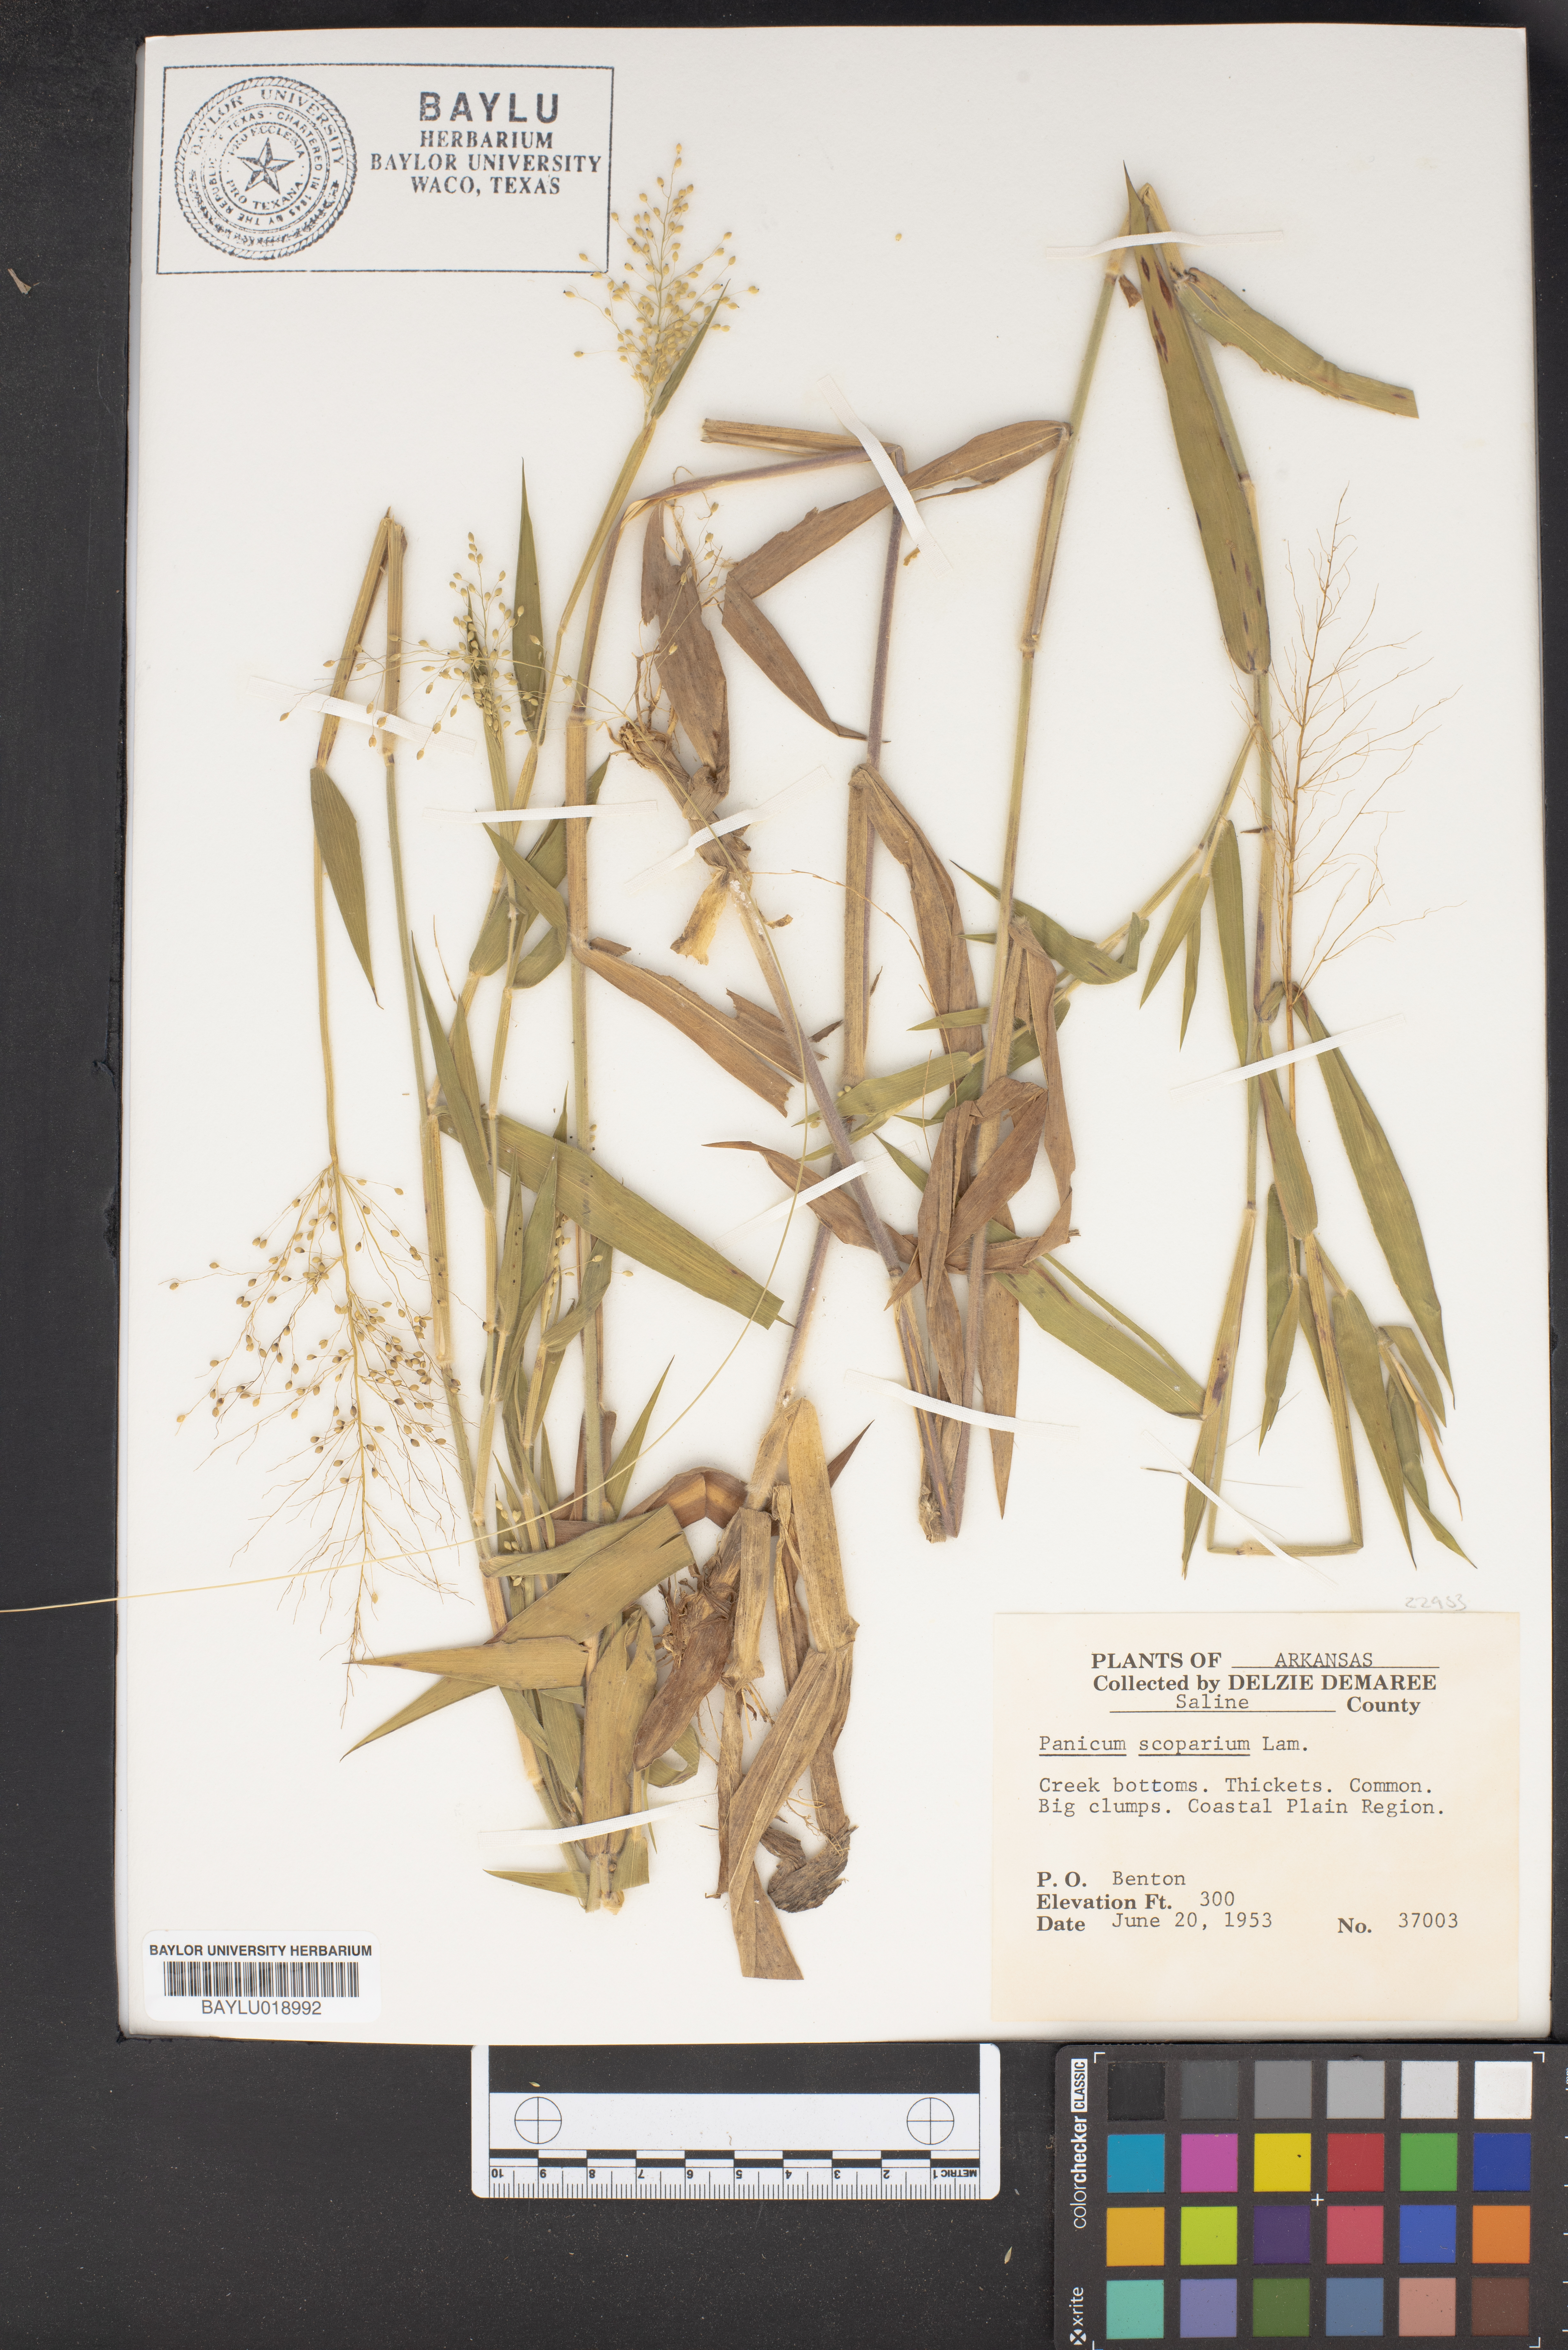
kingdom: Plantae
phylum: Tracheophyta
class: Liliopsida
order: Poales
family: Poaceae
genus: Dichanthelium
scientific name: Dichanthelium scribnerianum
